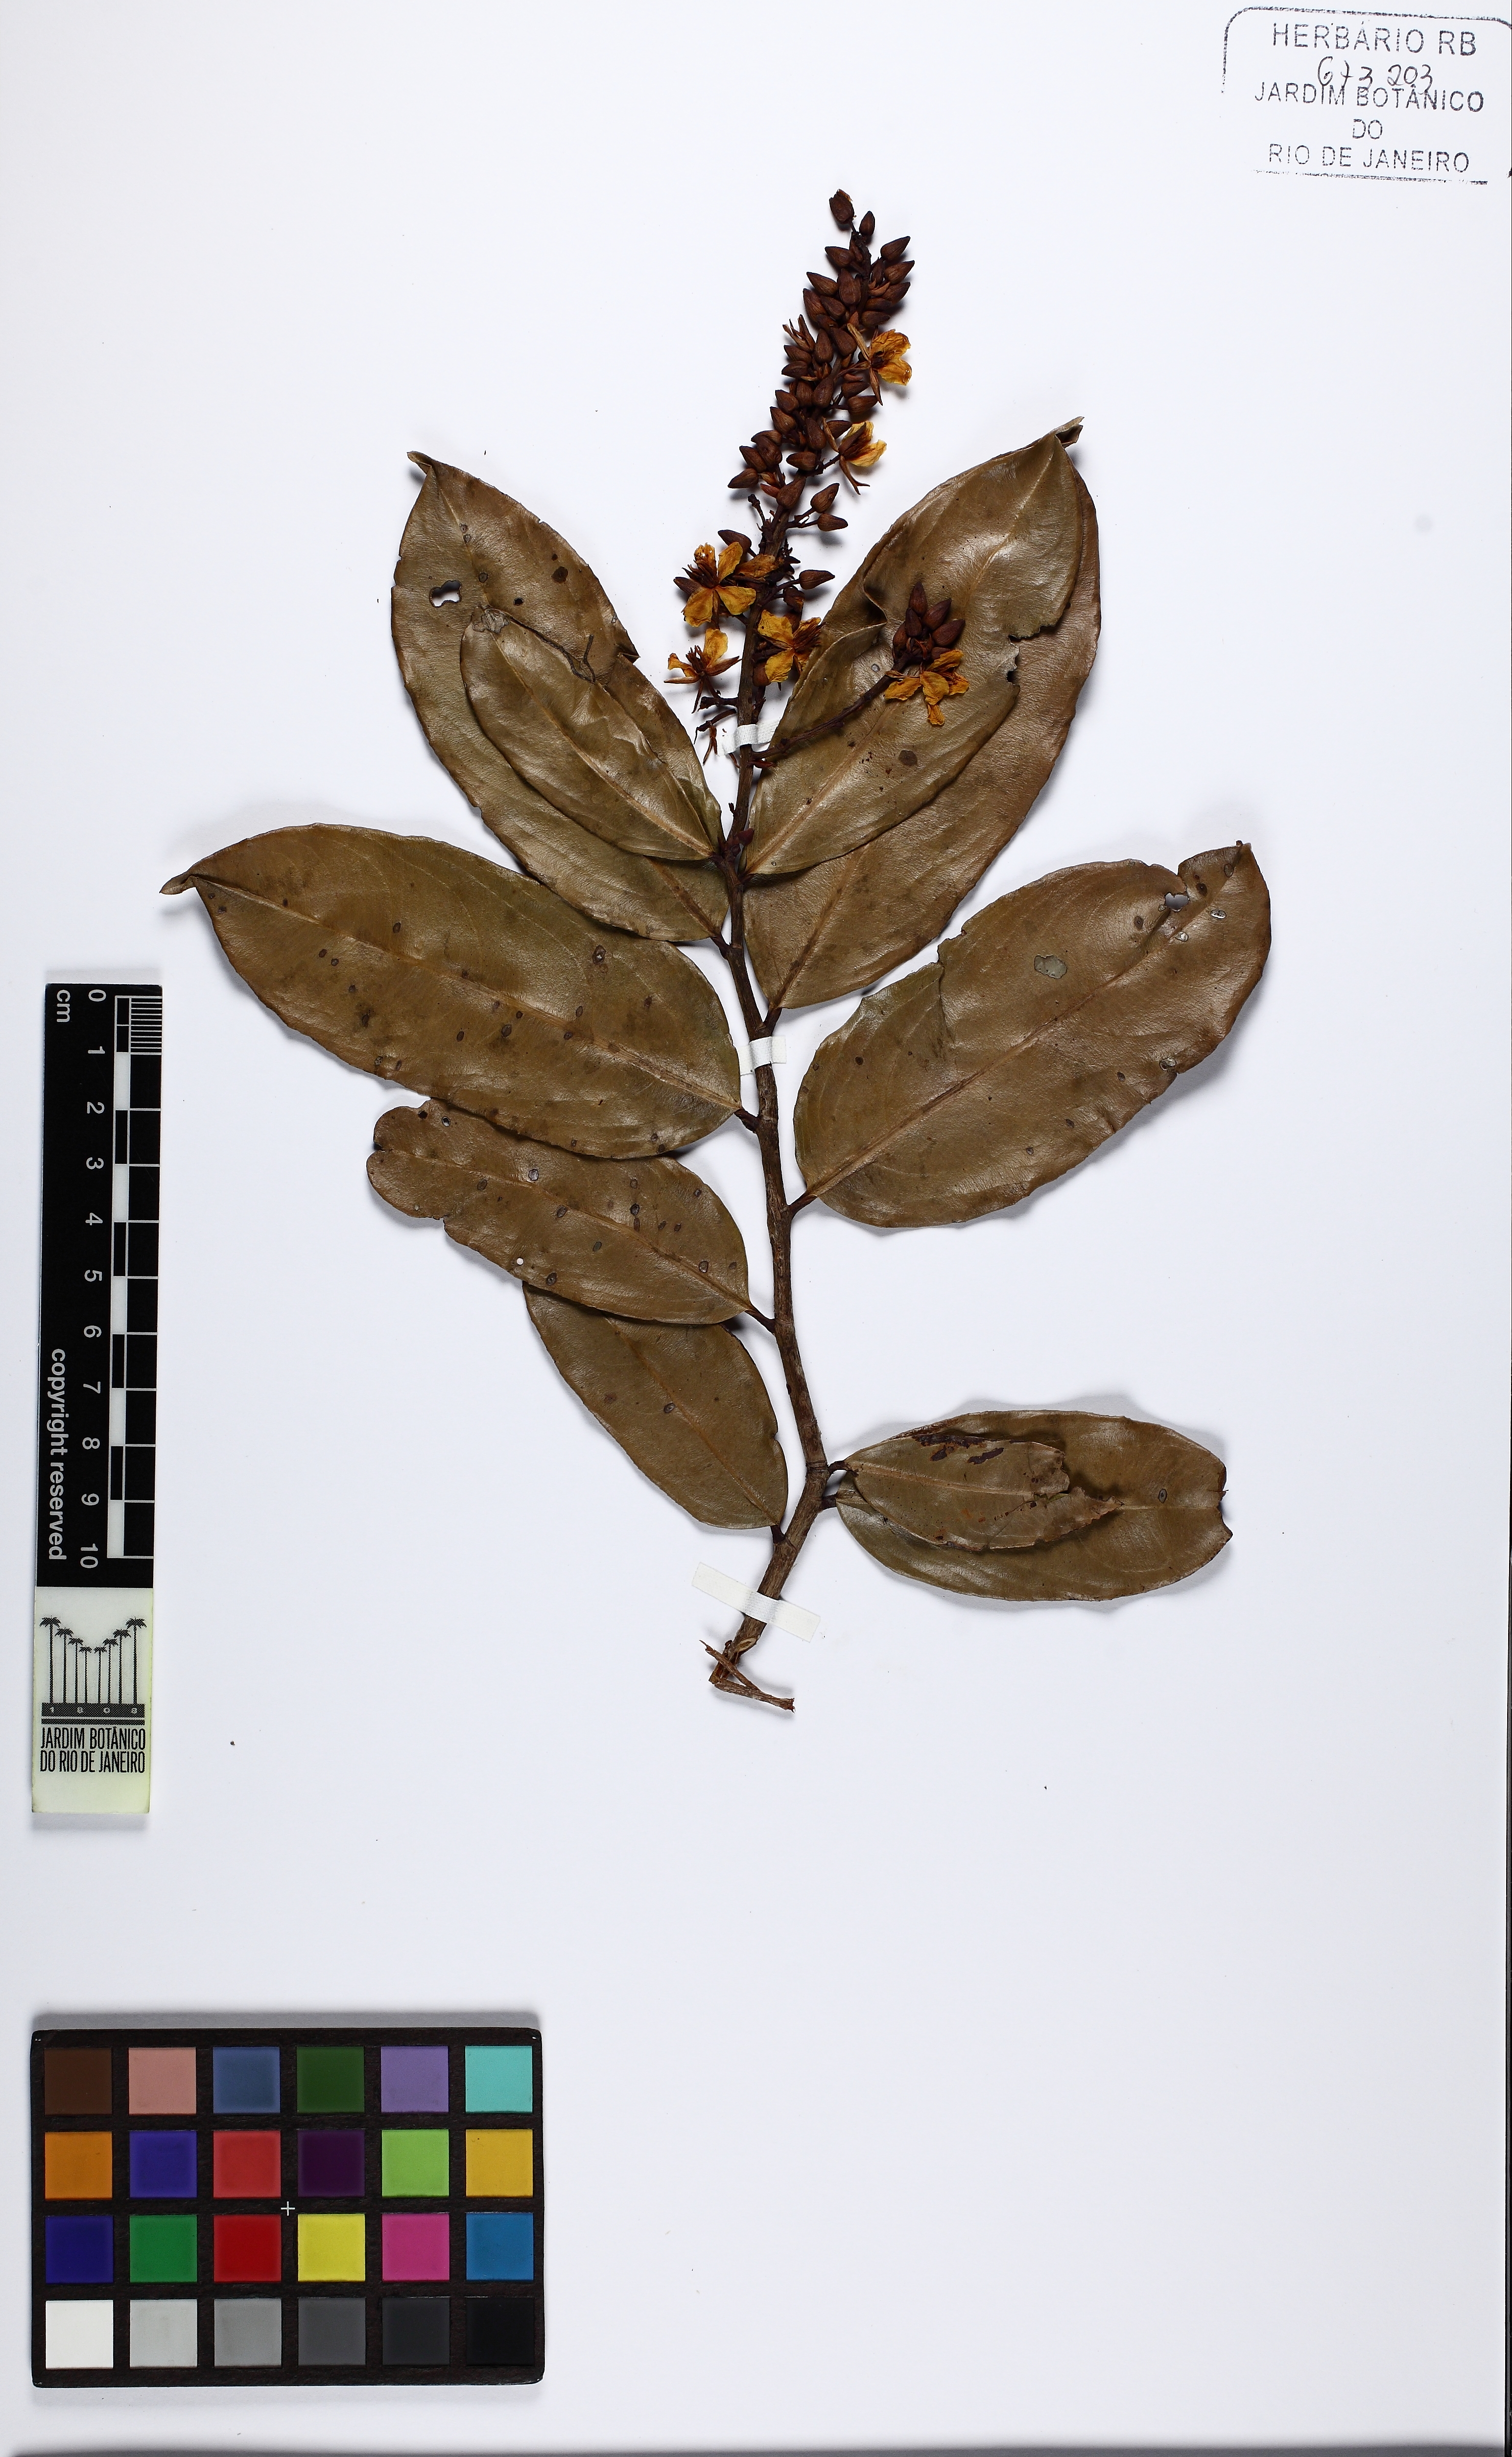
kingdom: Plantae
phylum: Tracheophyta
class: Magnoliopsida
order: Malpighiales
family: Ochnaceae
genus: Ouratea
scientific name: Ouratea cuspidata
